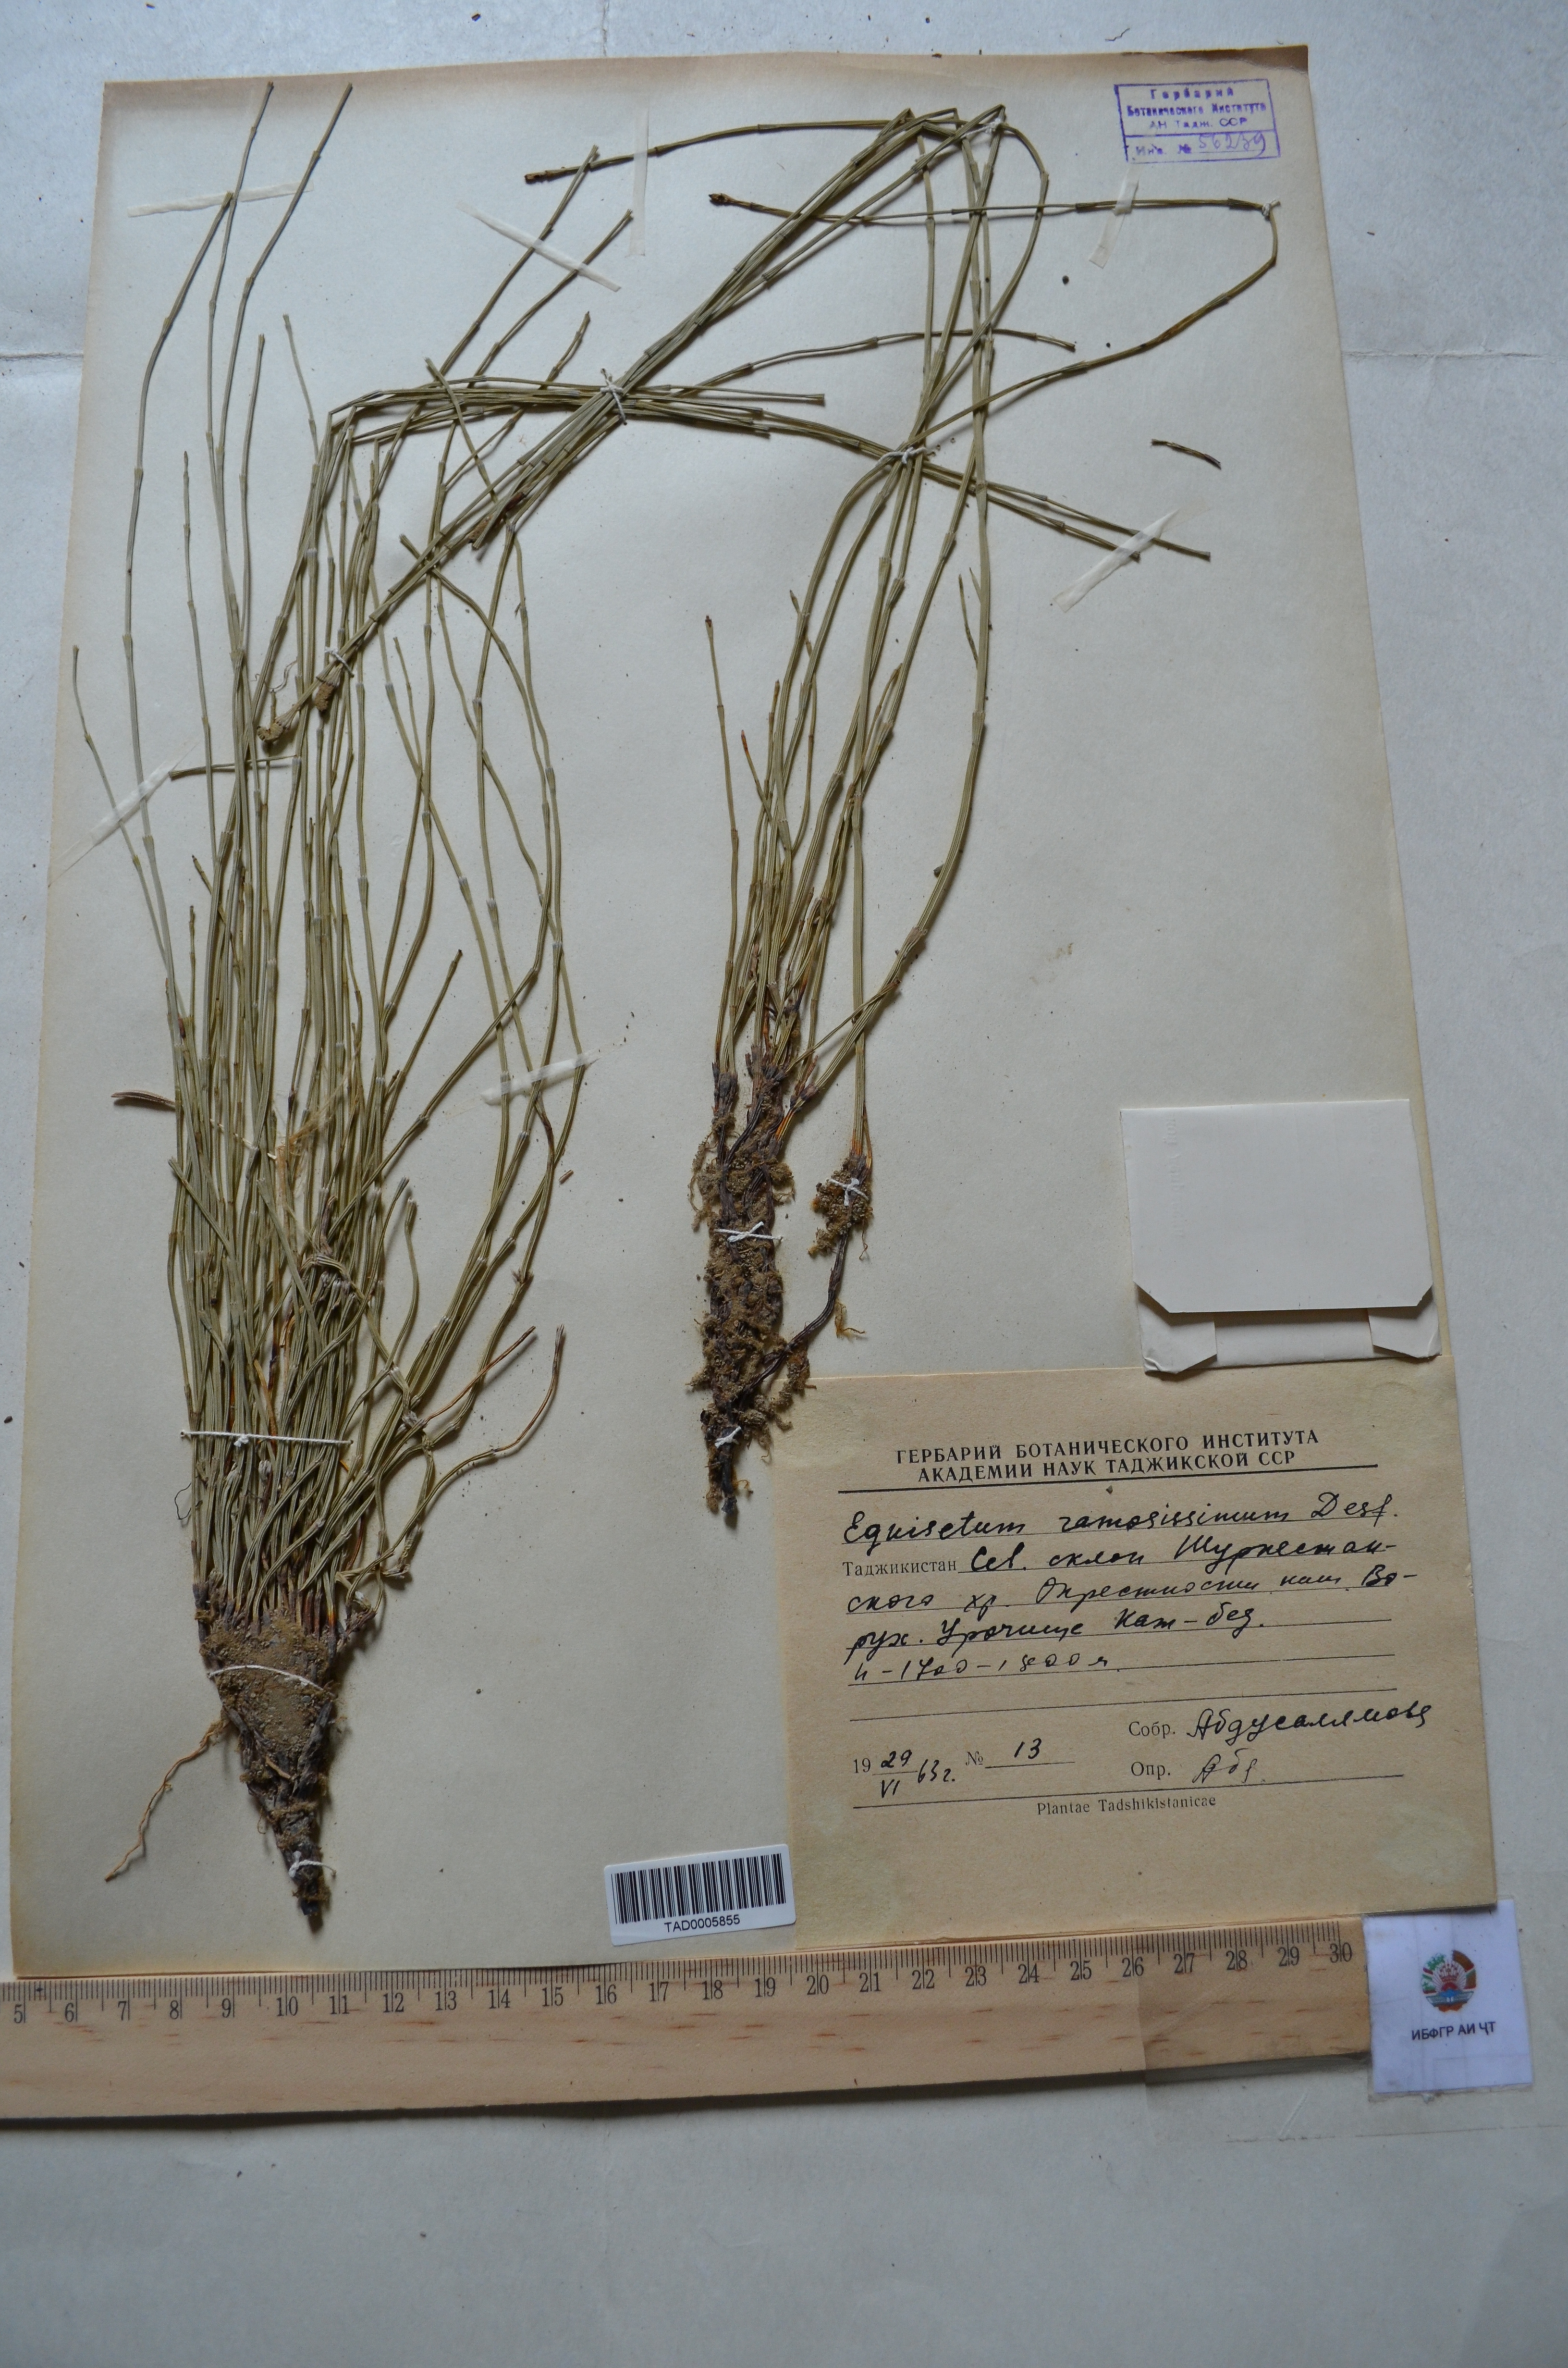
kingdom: Plantae
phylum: Tracheophyta
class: Polypodiopsida
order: Equisetales
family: Equisetaceae
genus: Equisetum
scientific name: Equisetum ramosissimum
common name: Branched horsetail
